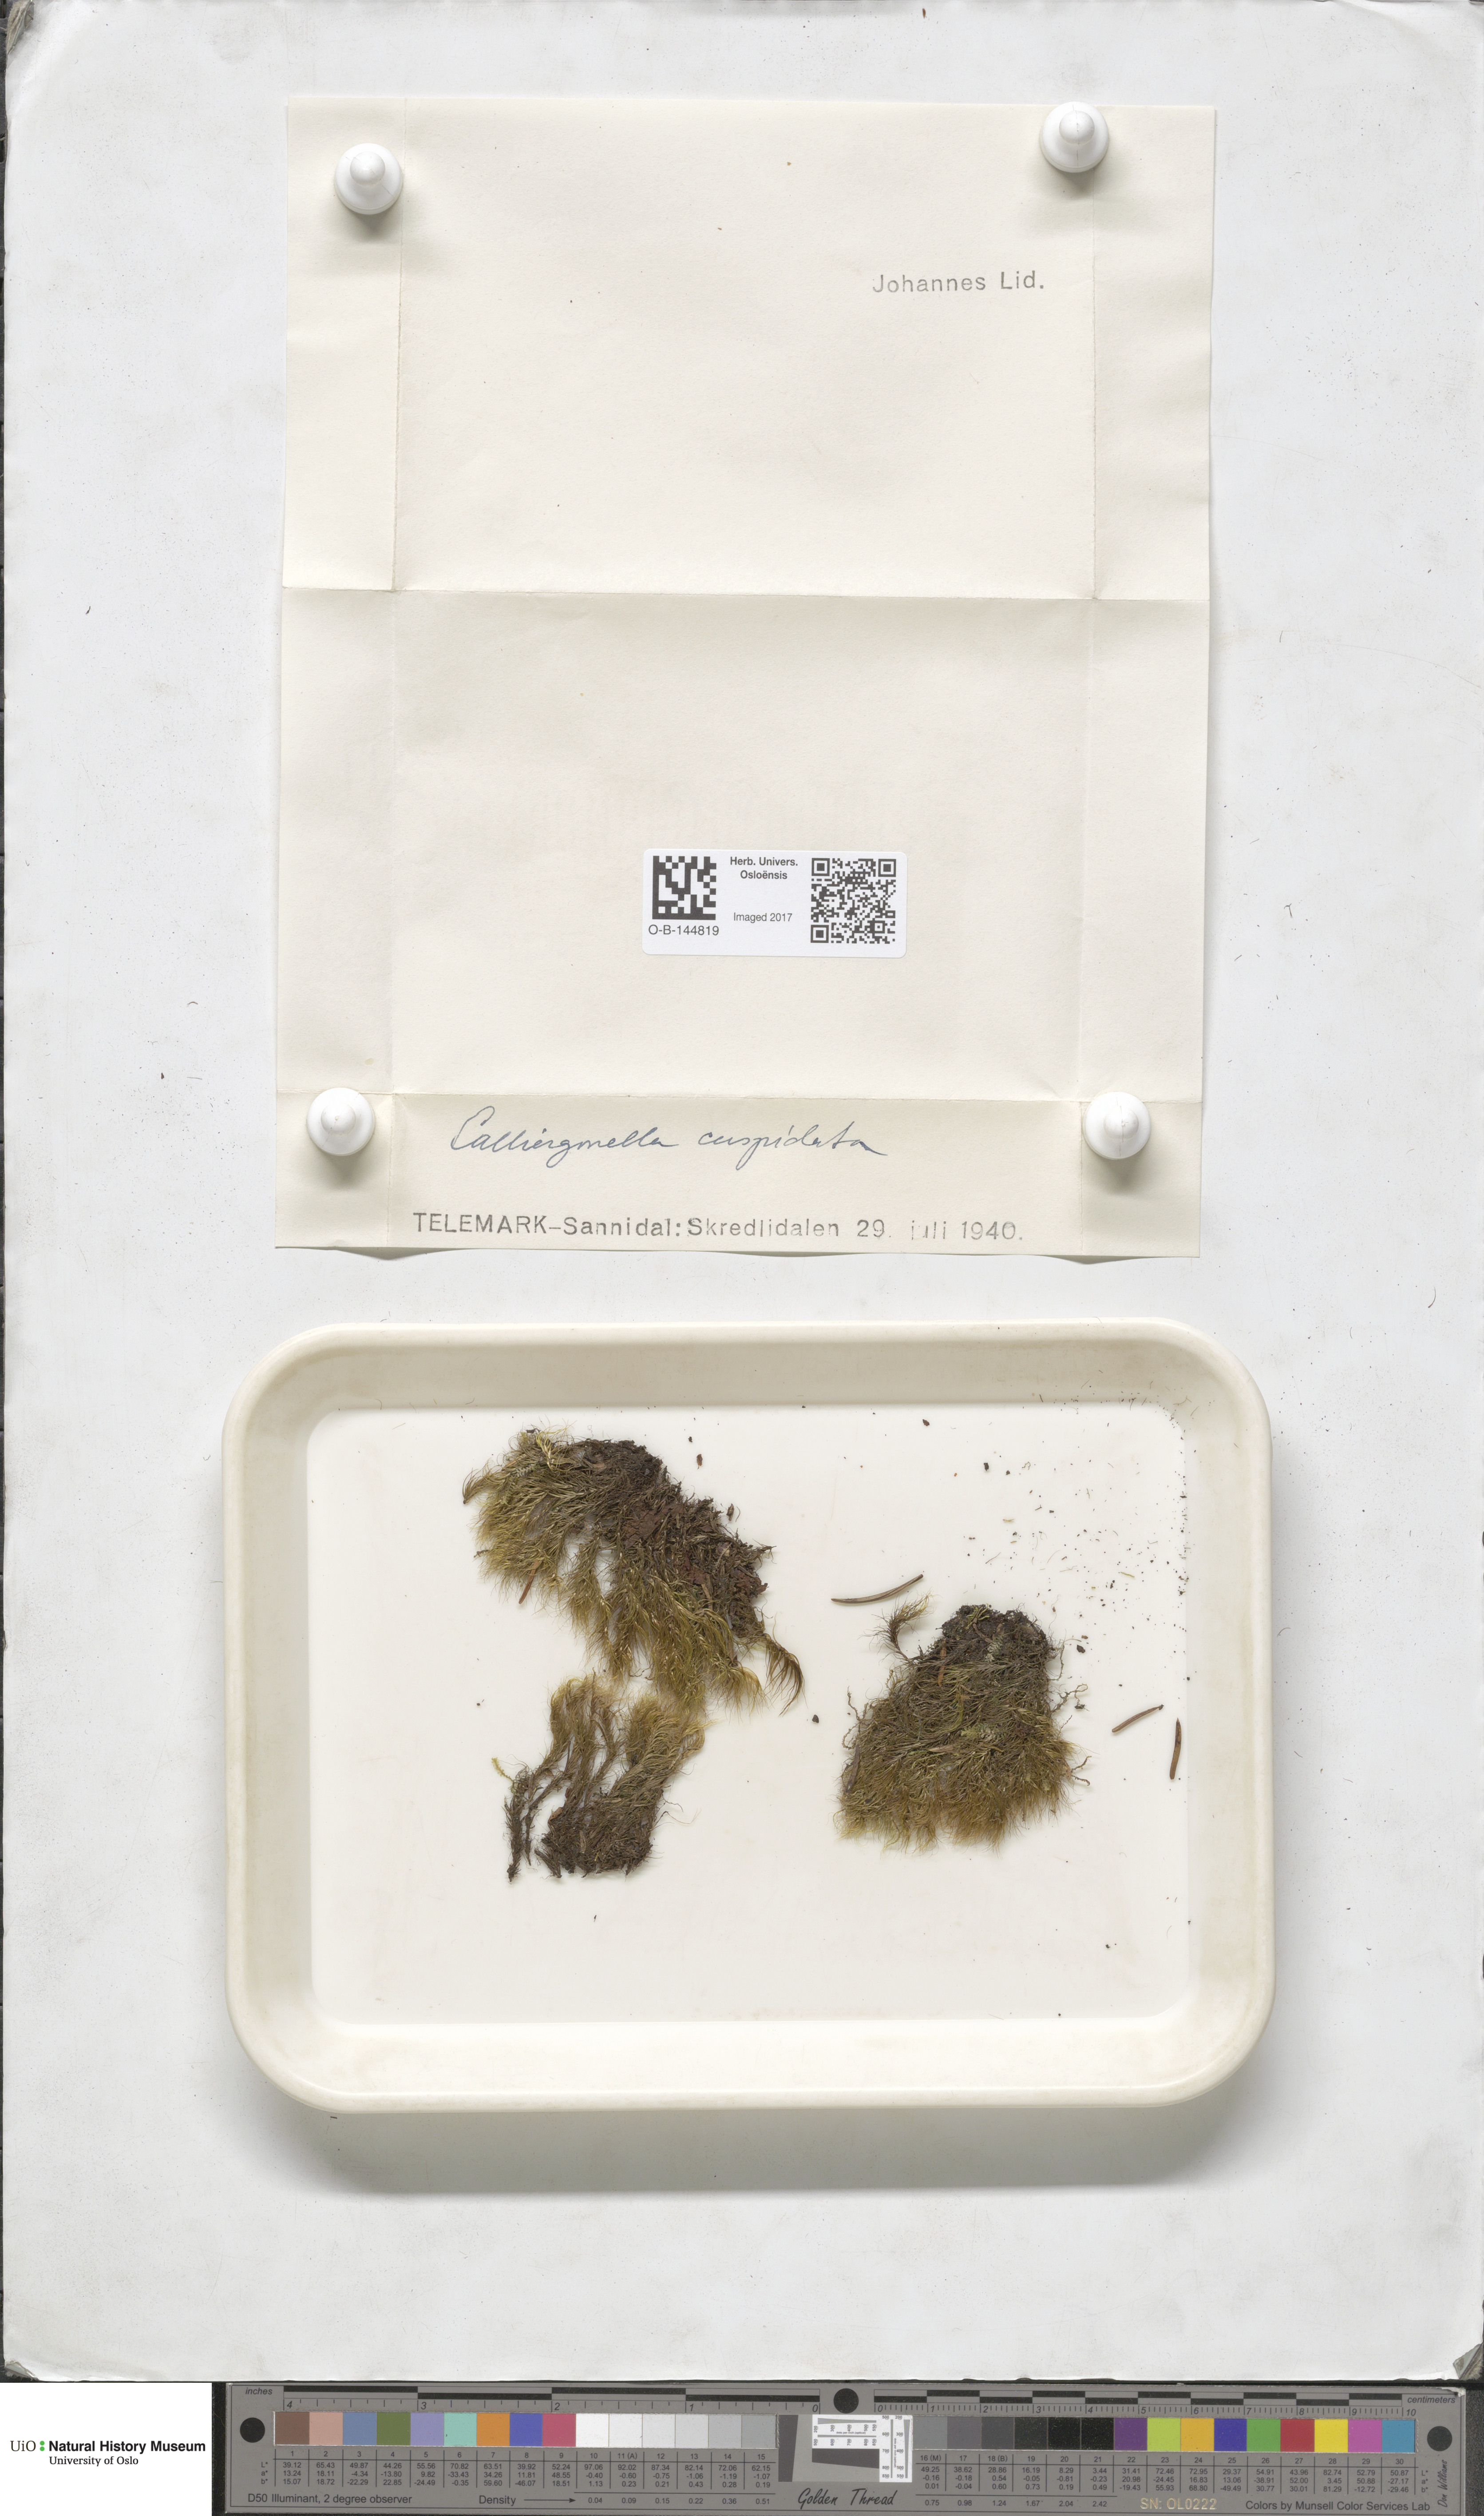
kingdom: Plantae
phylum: Bryophyta
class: Bryopsida
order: Hypnales
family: Pylaisiaceae
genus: Calliergonella
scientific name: Calliergonella cuspidata
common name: Common large wetland moss
